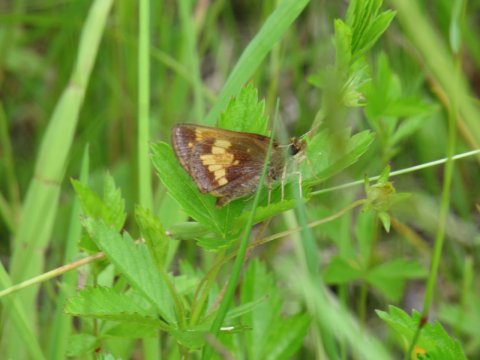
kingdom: Animalia
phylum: Arthropoda
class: Insecta
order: Lepidoptera
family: Hesperiidae
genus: Lon
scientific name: Lon hobomok
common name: Hobomok Skipper
